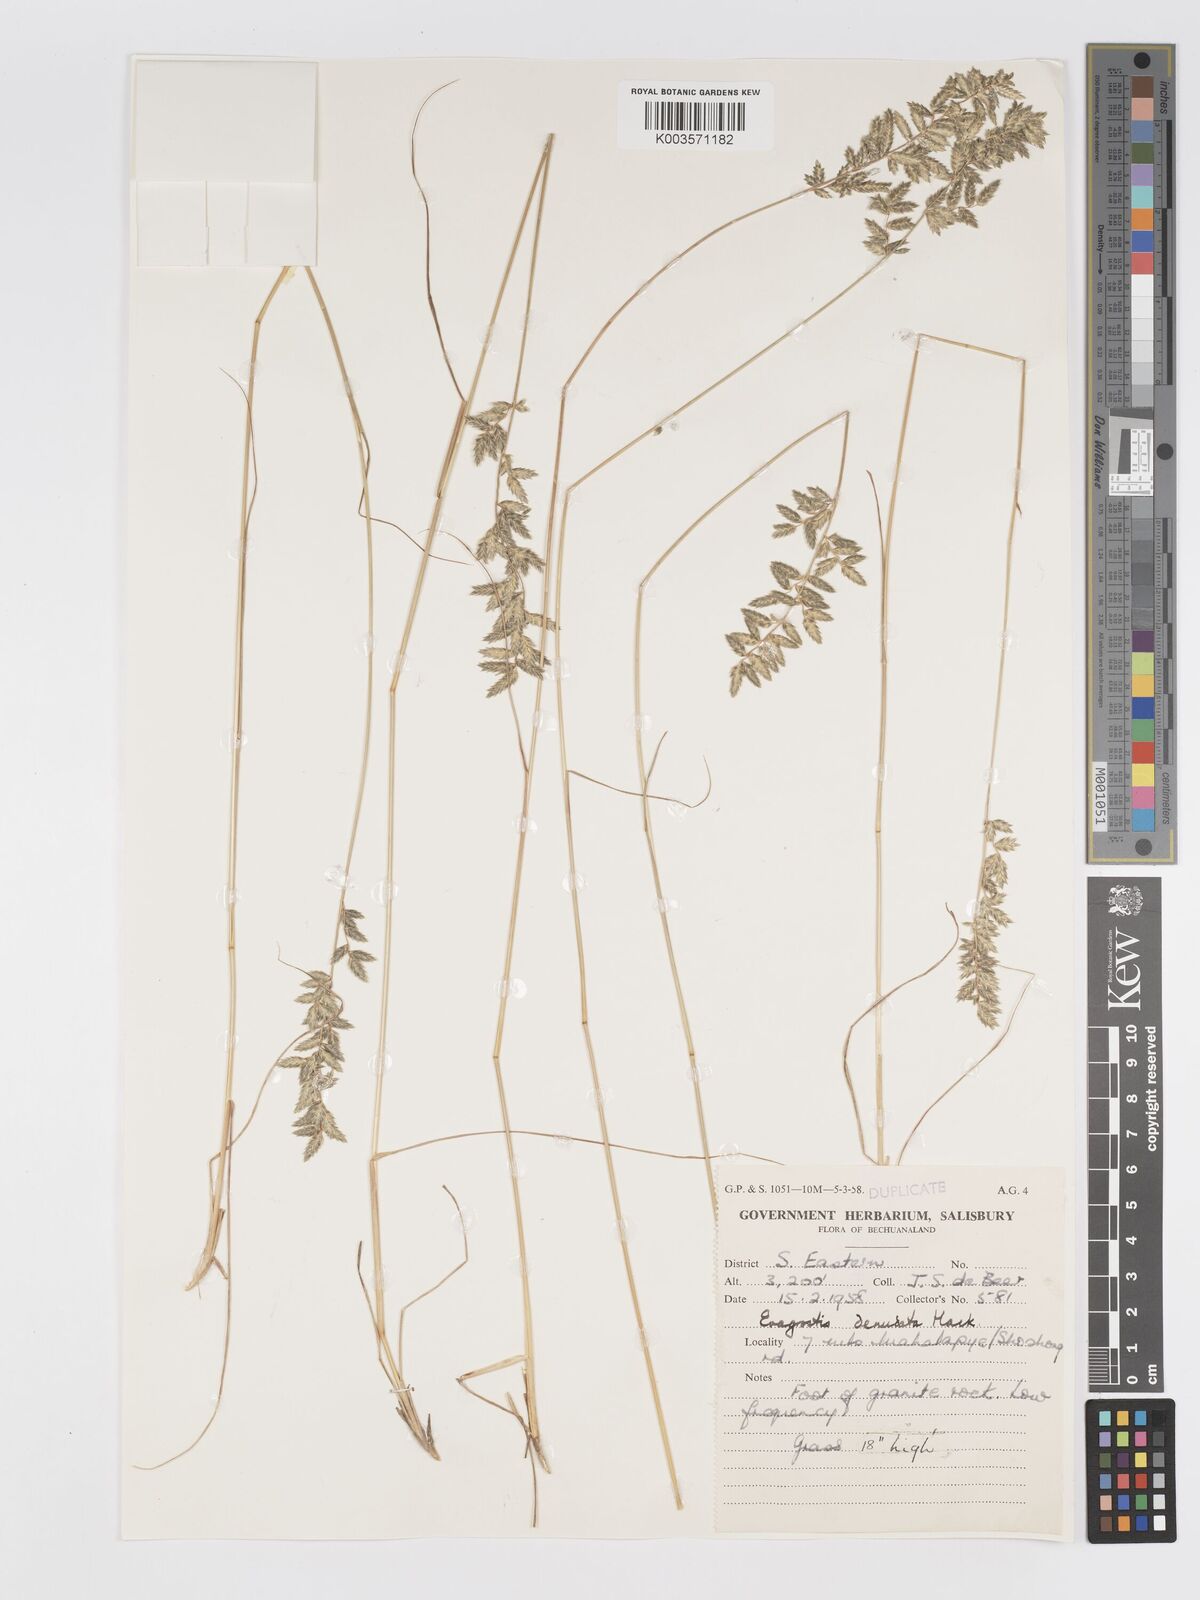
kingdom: Plantae
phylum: Tracheophyta
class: Liliopsida
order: Poales
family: Poaceae
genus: Eragrostis
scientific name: Eragrostis nindensis
